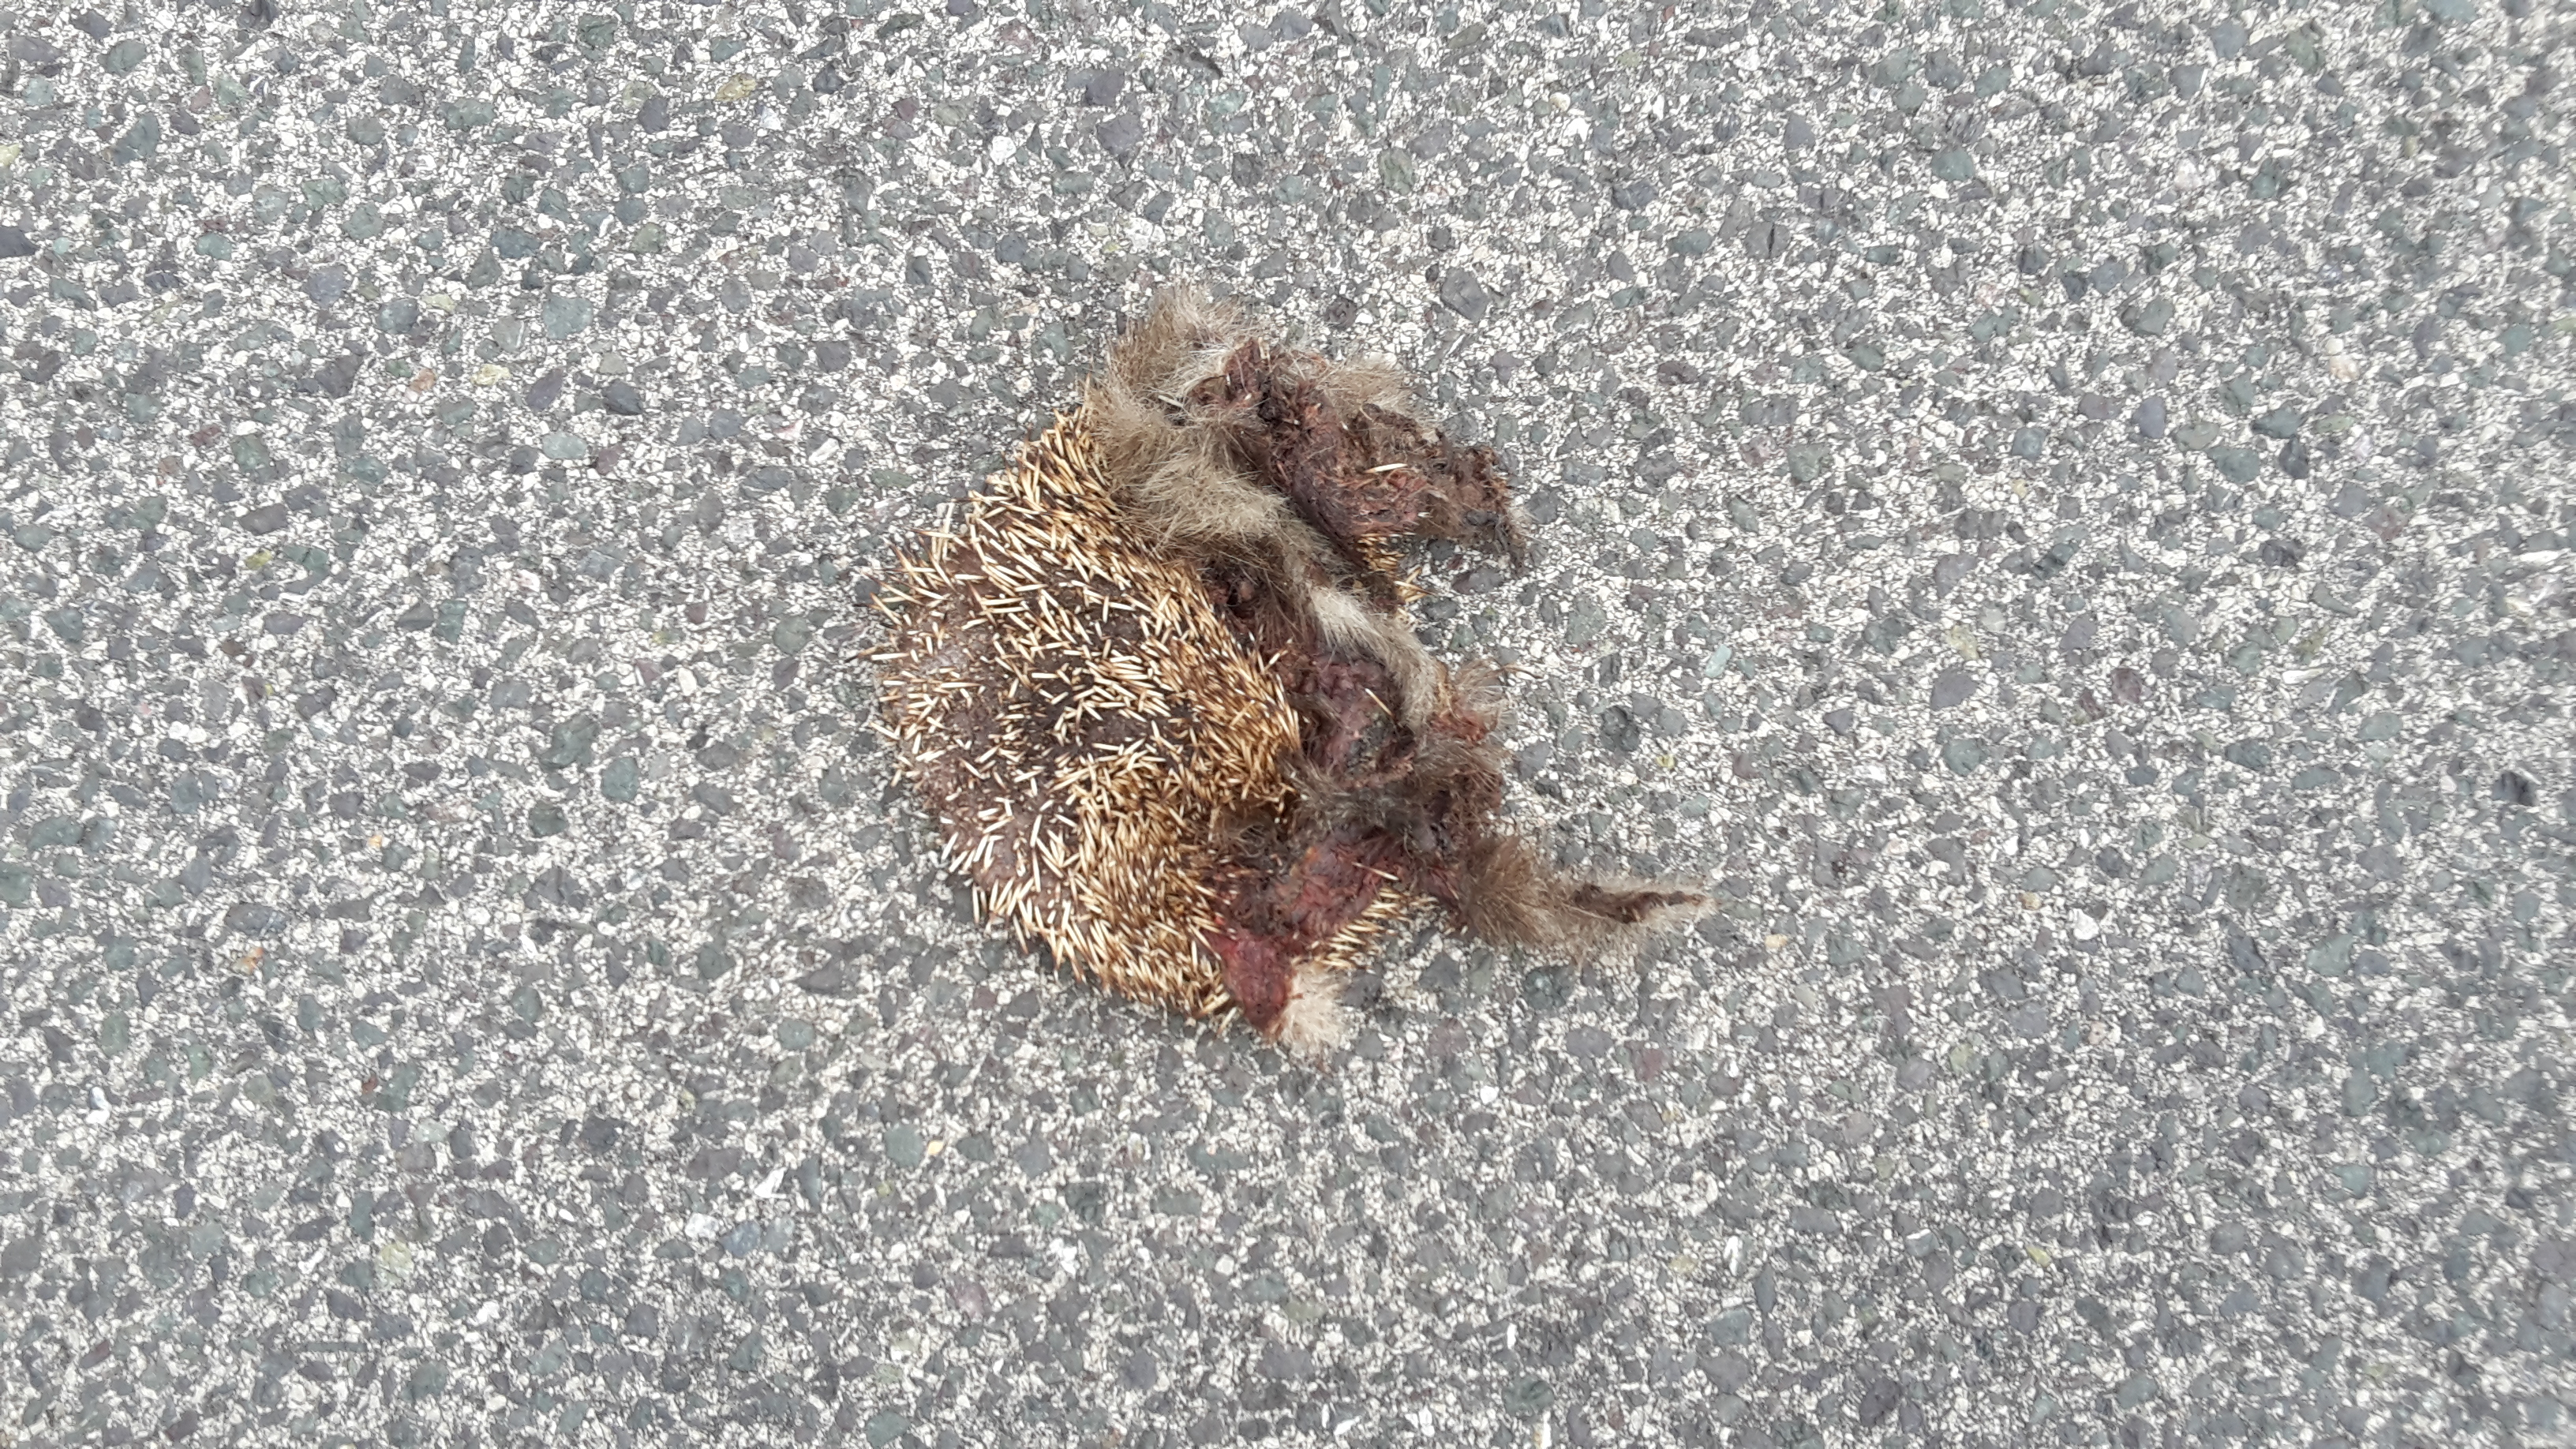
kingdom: Animalia
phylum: Chordata
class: Mammalia
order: Erinaceomorpha
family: Erinaceidae
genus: Erinaceus
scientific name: Erinaceus
